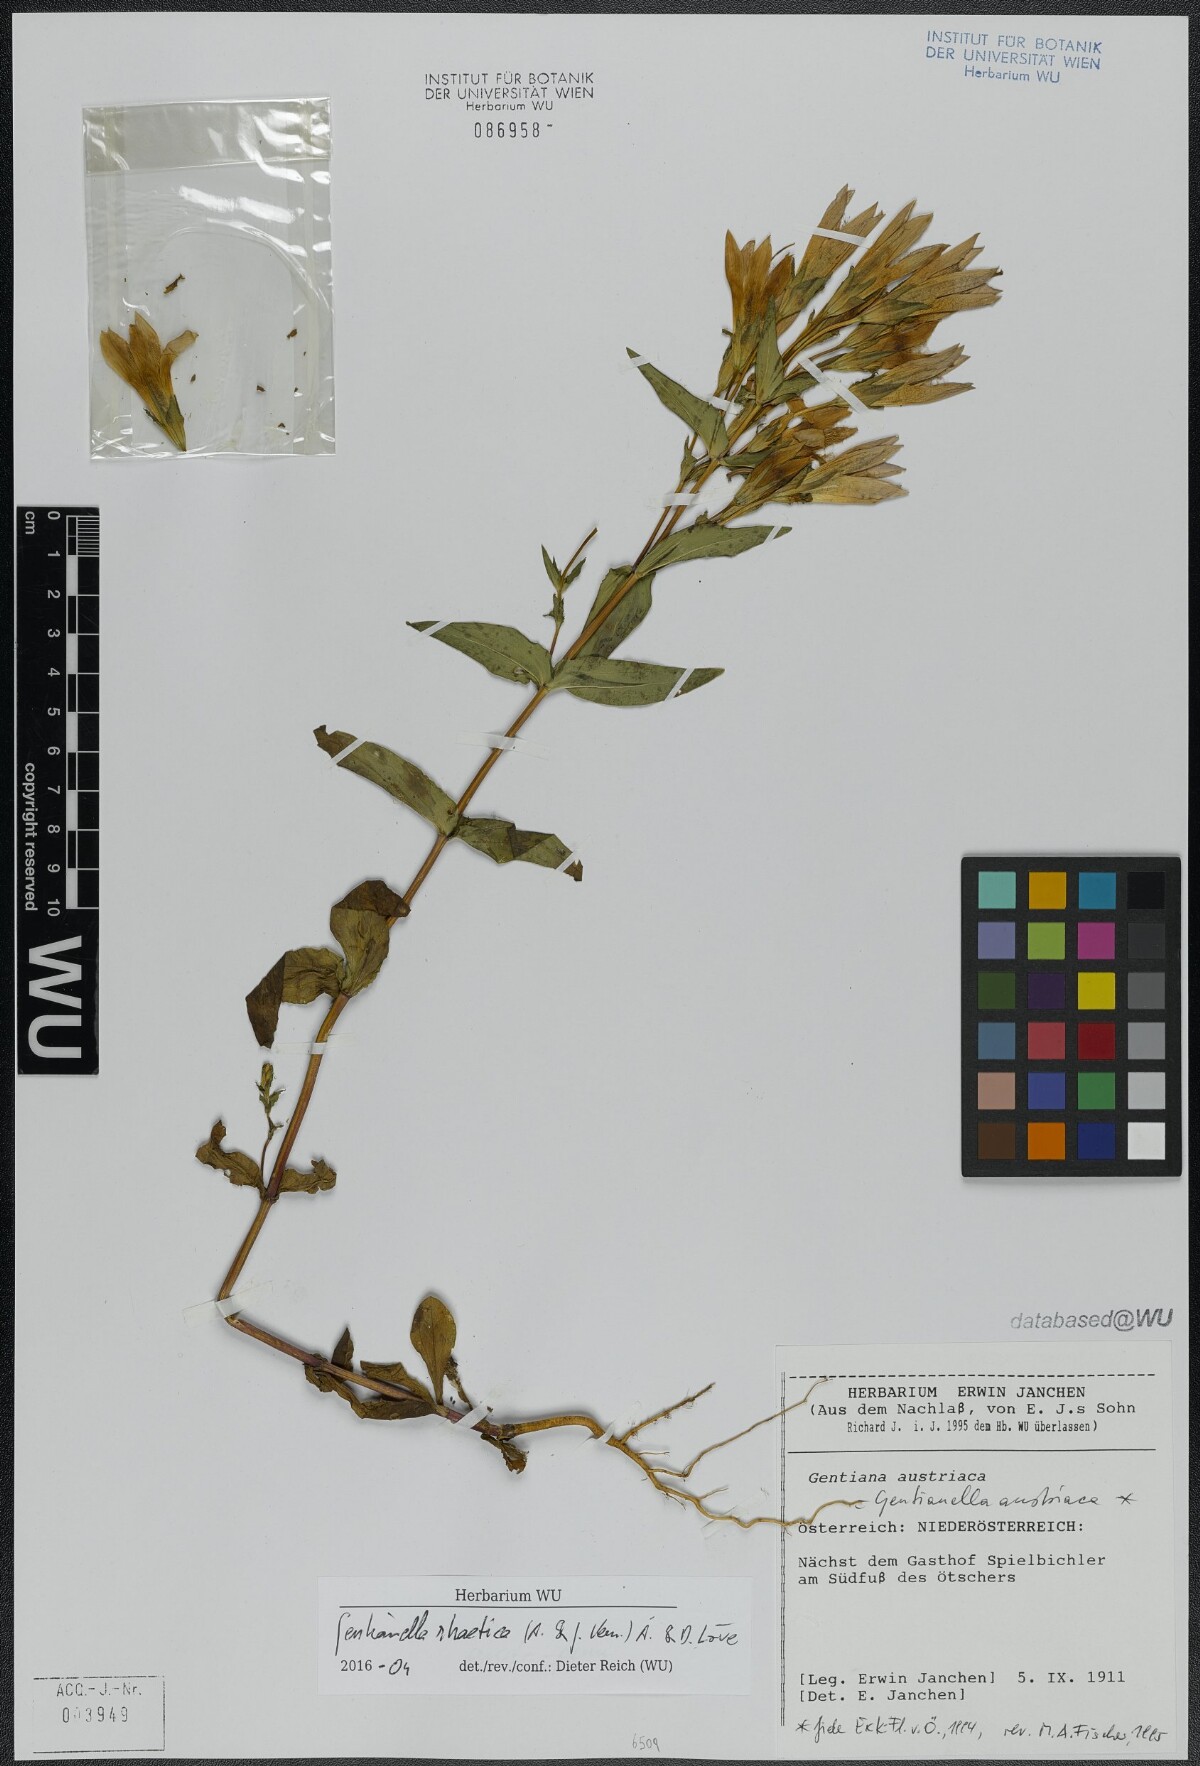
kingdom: Plantae
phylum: Tracheophyta
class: Magnoliopsida
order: Gentianales
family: Gentianaceae
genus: Gentianella
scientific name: Gentianella rhaetica
